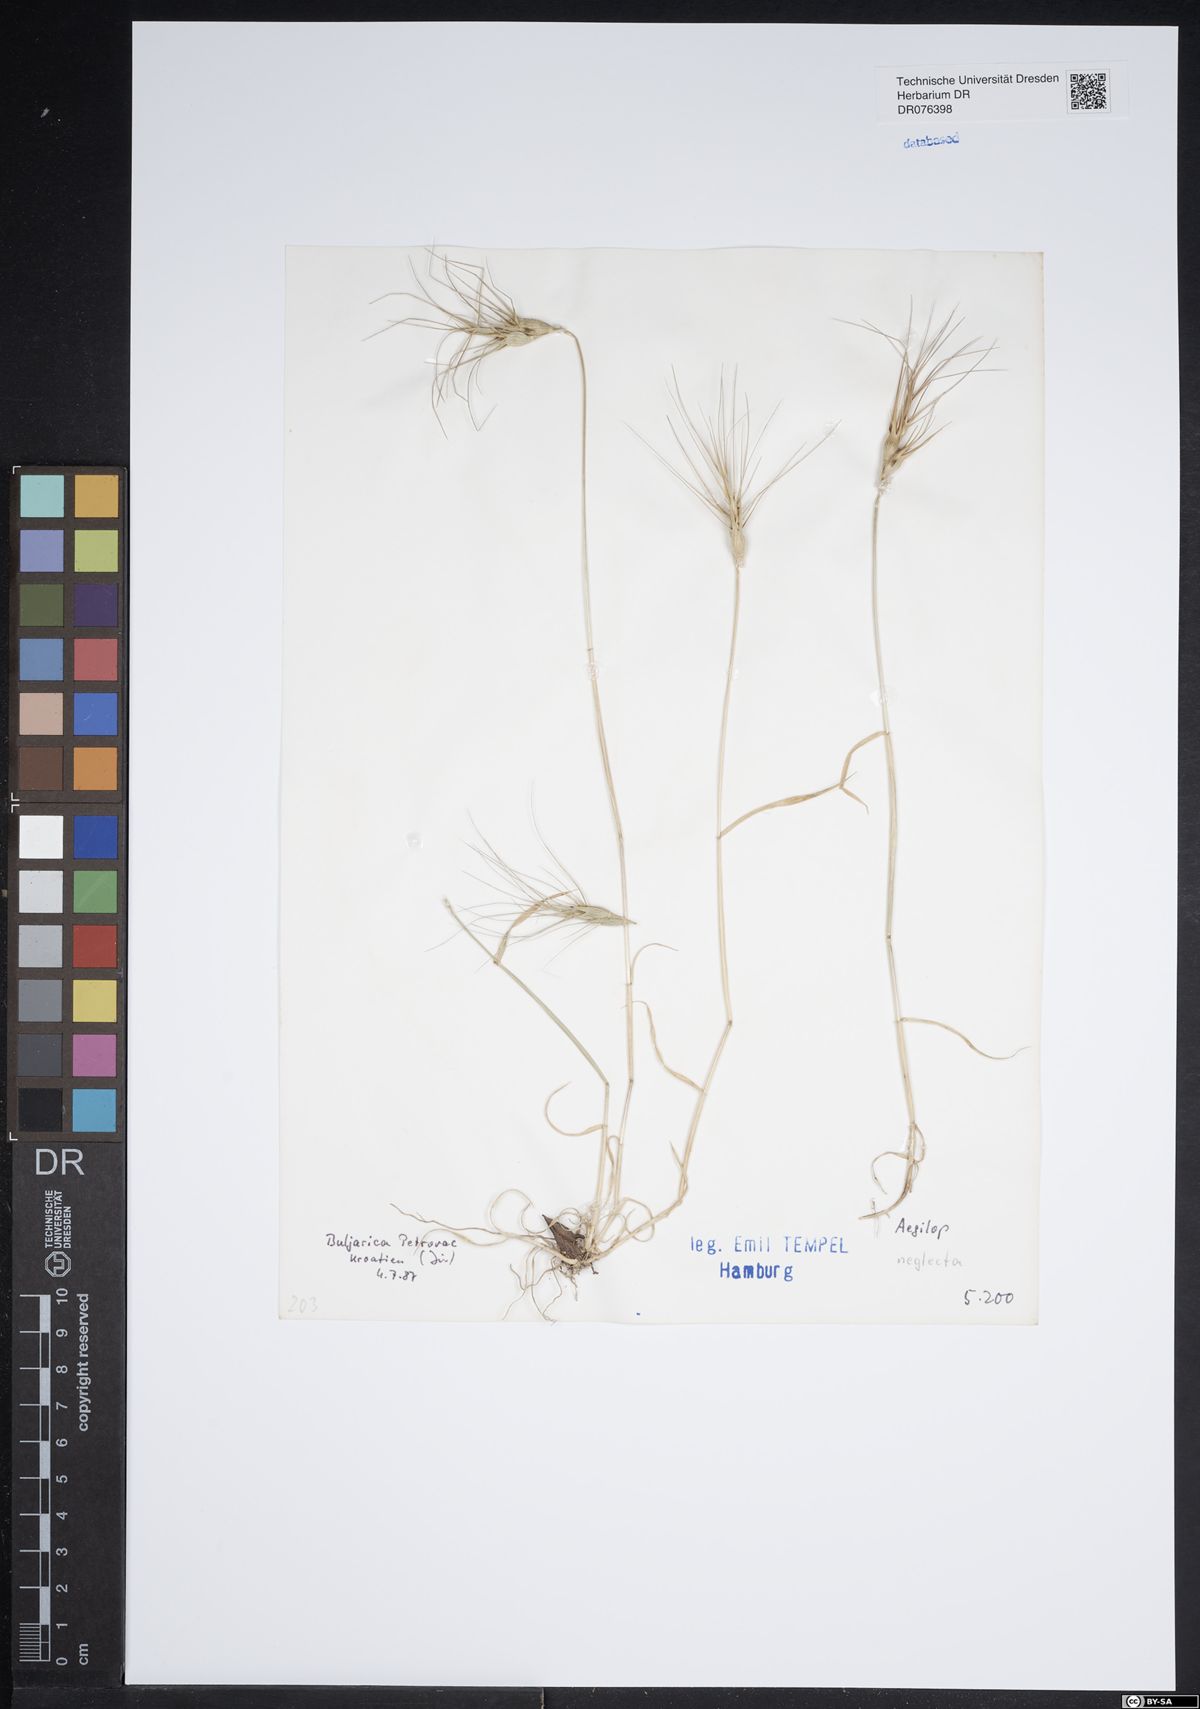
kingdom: Plantae
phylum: Tracheophyta
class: Liliopsida
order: Poales
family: Poaceae
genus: Aegilops
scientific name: Aegilops neglecta
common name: Three-awn goat grass
